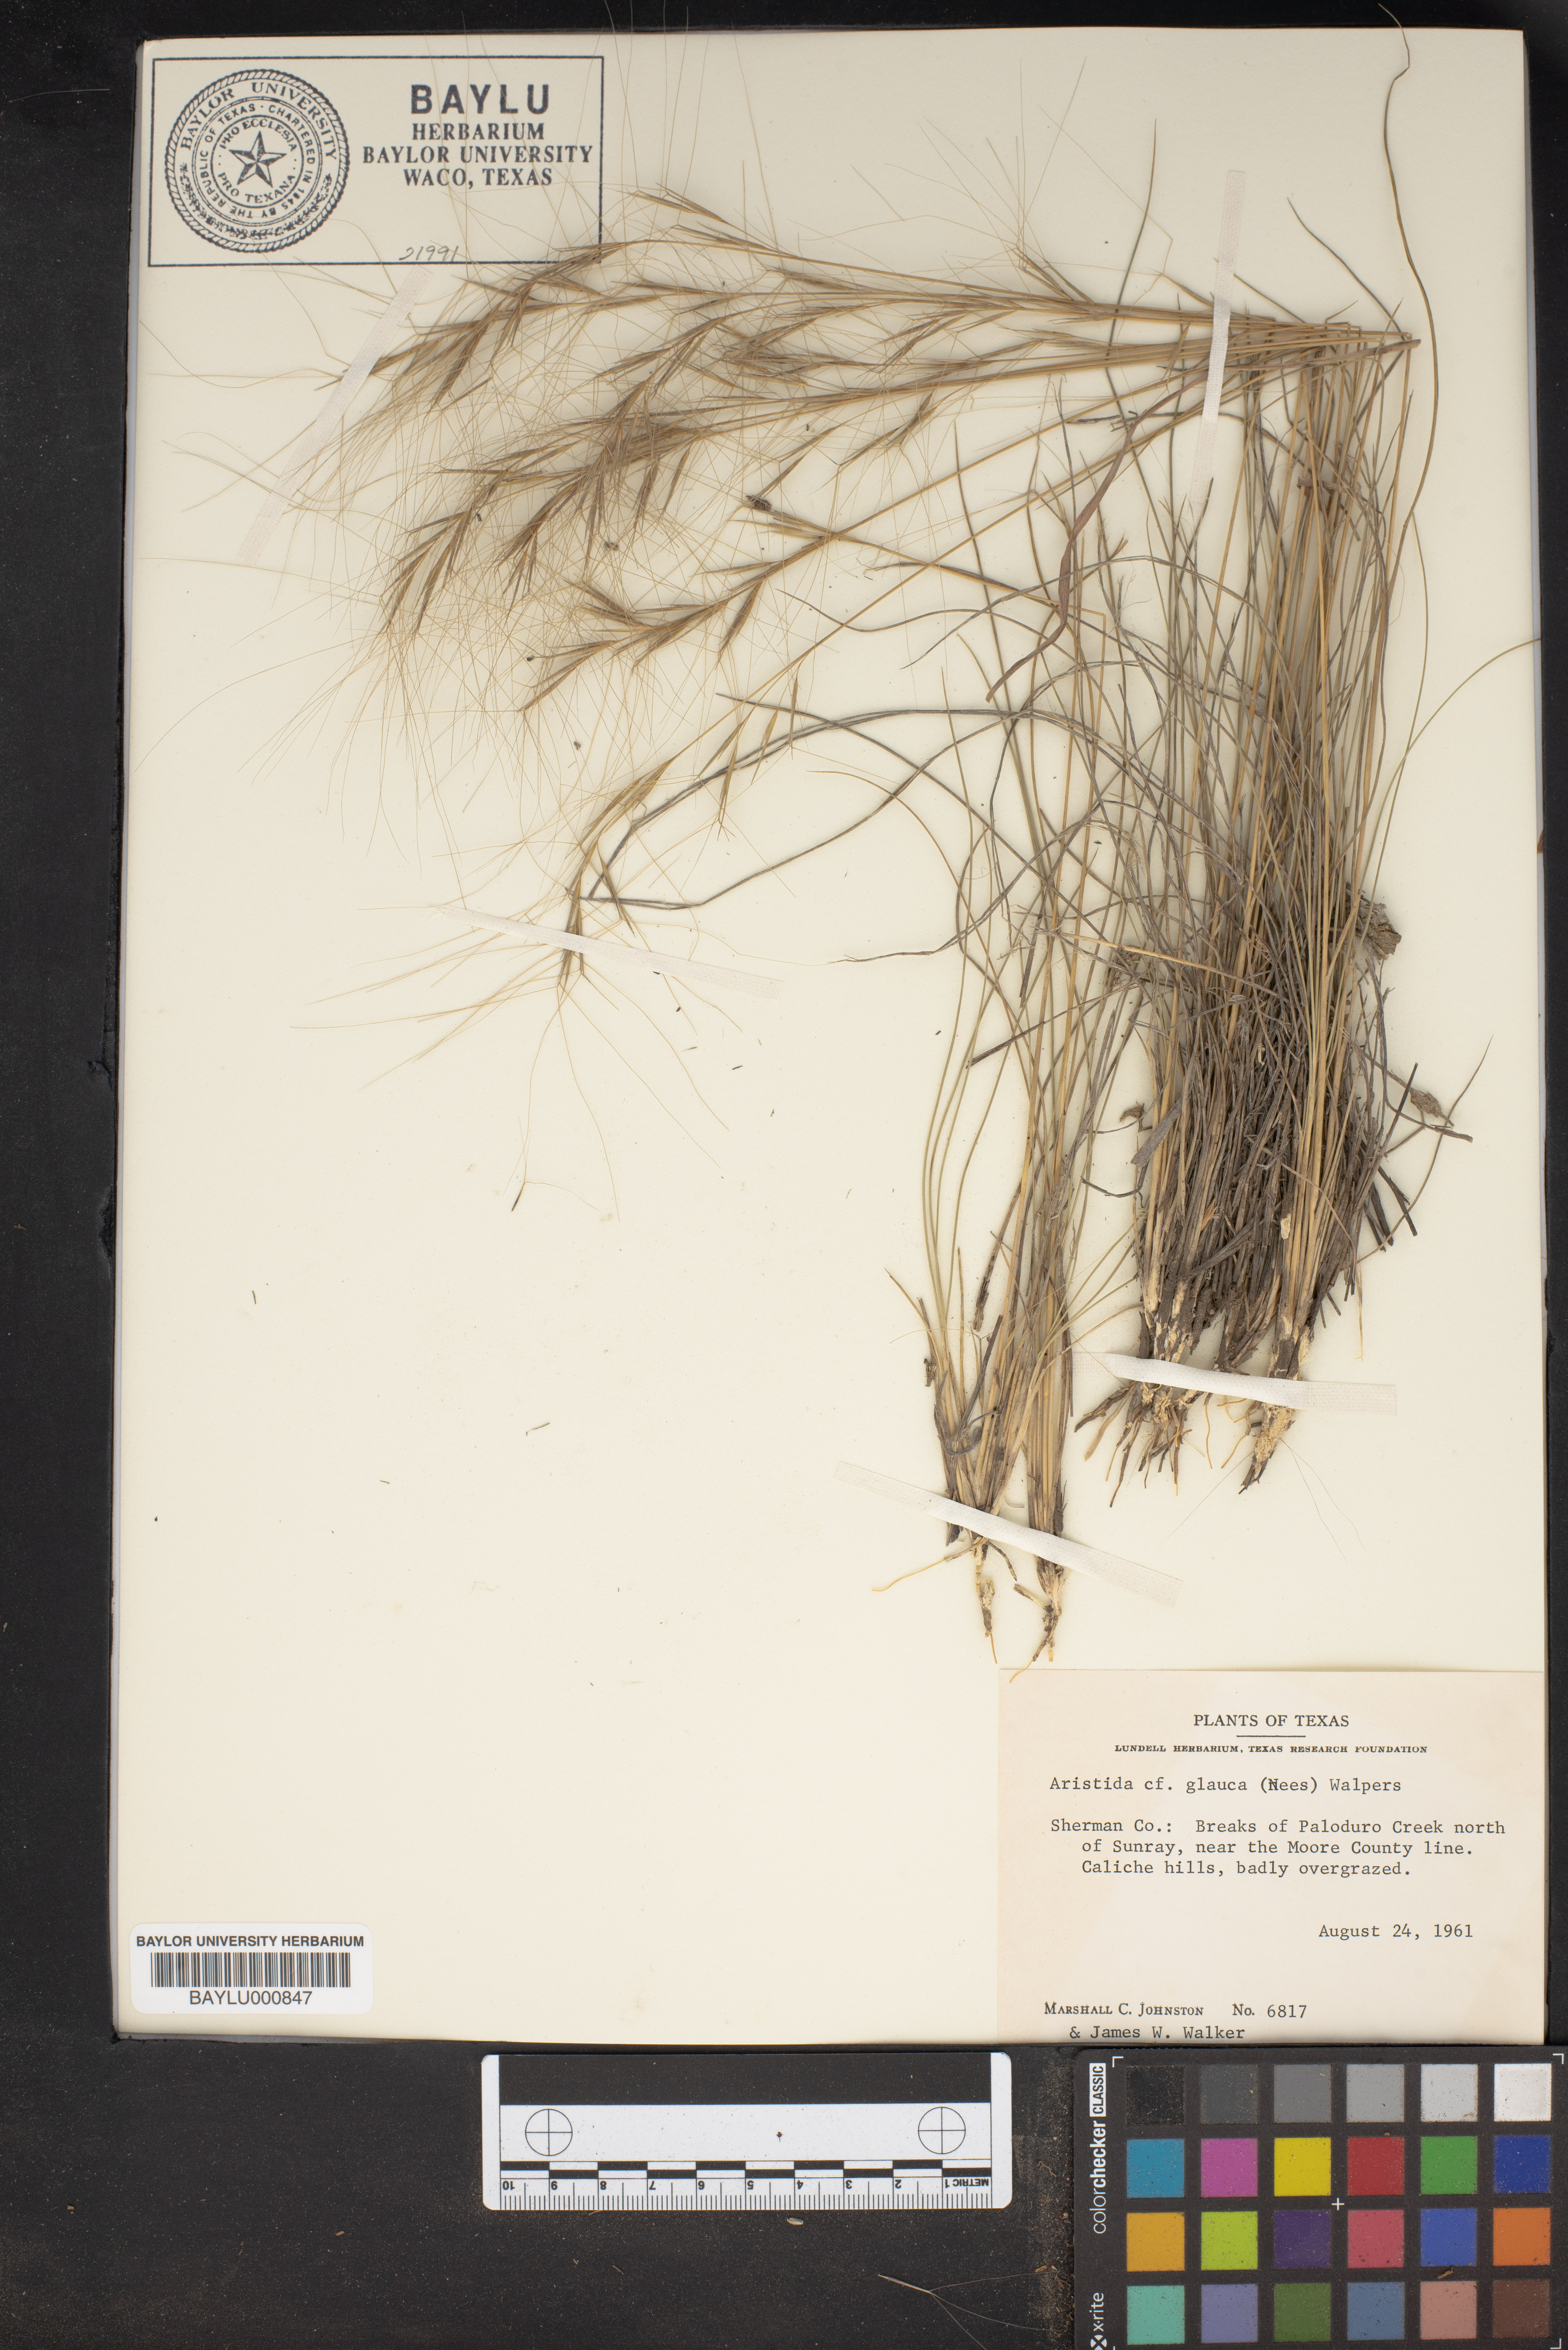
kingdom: Plantae
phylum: Tracheophyta
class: Liliopsida
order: Poales
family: Poaceae
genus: Aristida
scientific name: Aristida glauca
